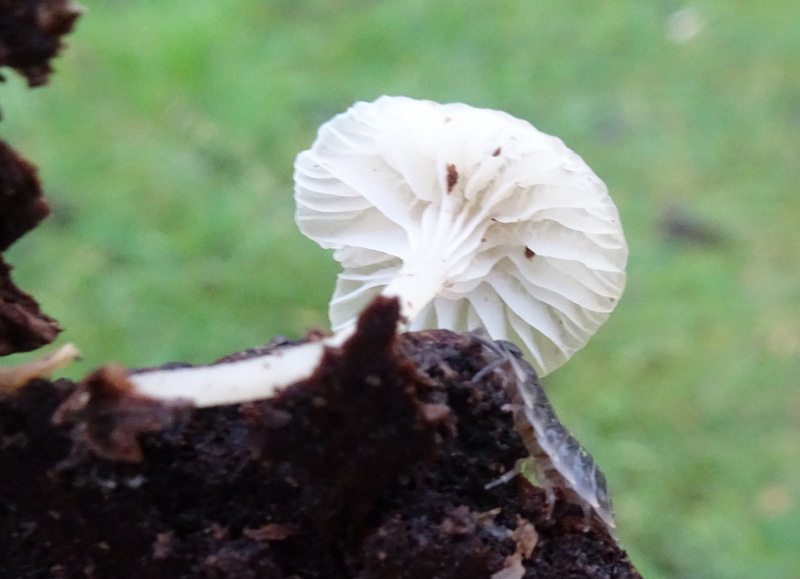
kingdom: Fungi
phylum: Basidiomycota
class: Agaricomycetes
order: Agaricales
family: Porotheleaceae
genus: Phloeomana
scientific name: Phloeomana speirea
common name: kvist-huesvamp
